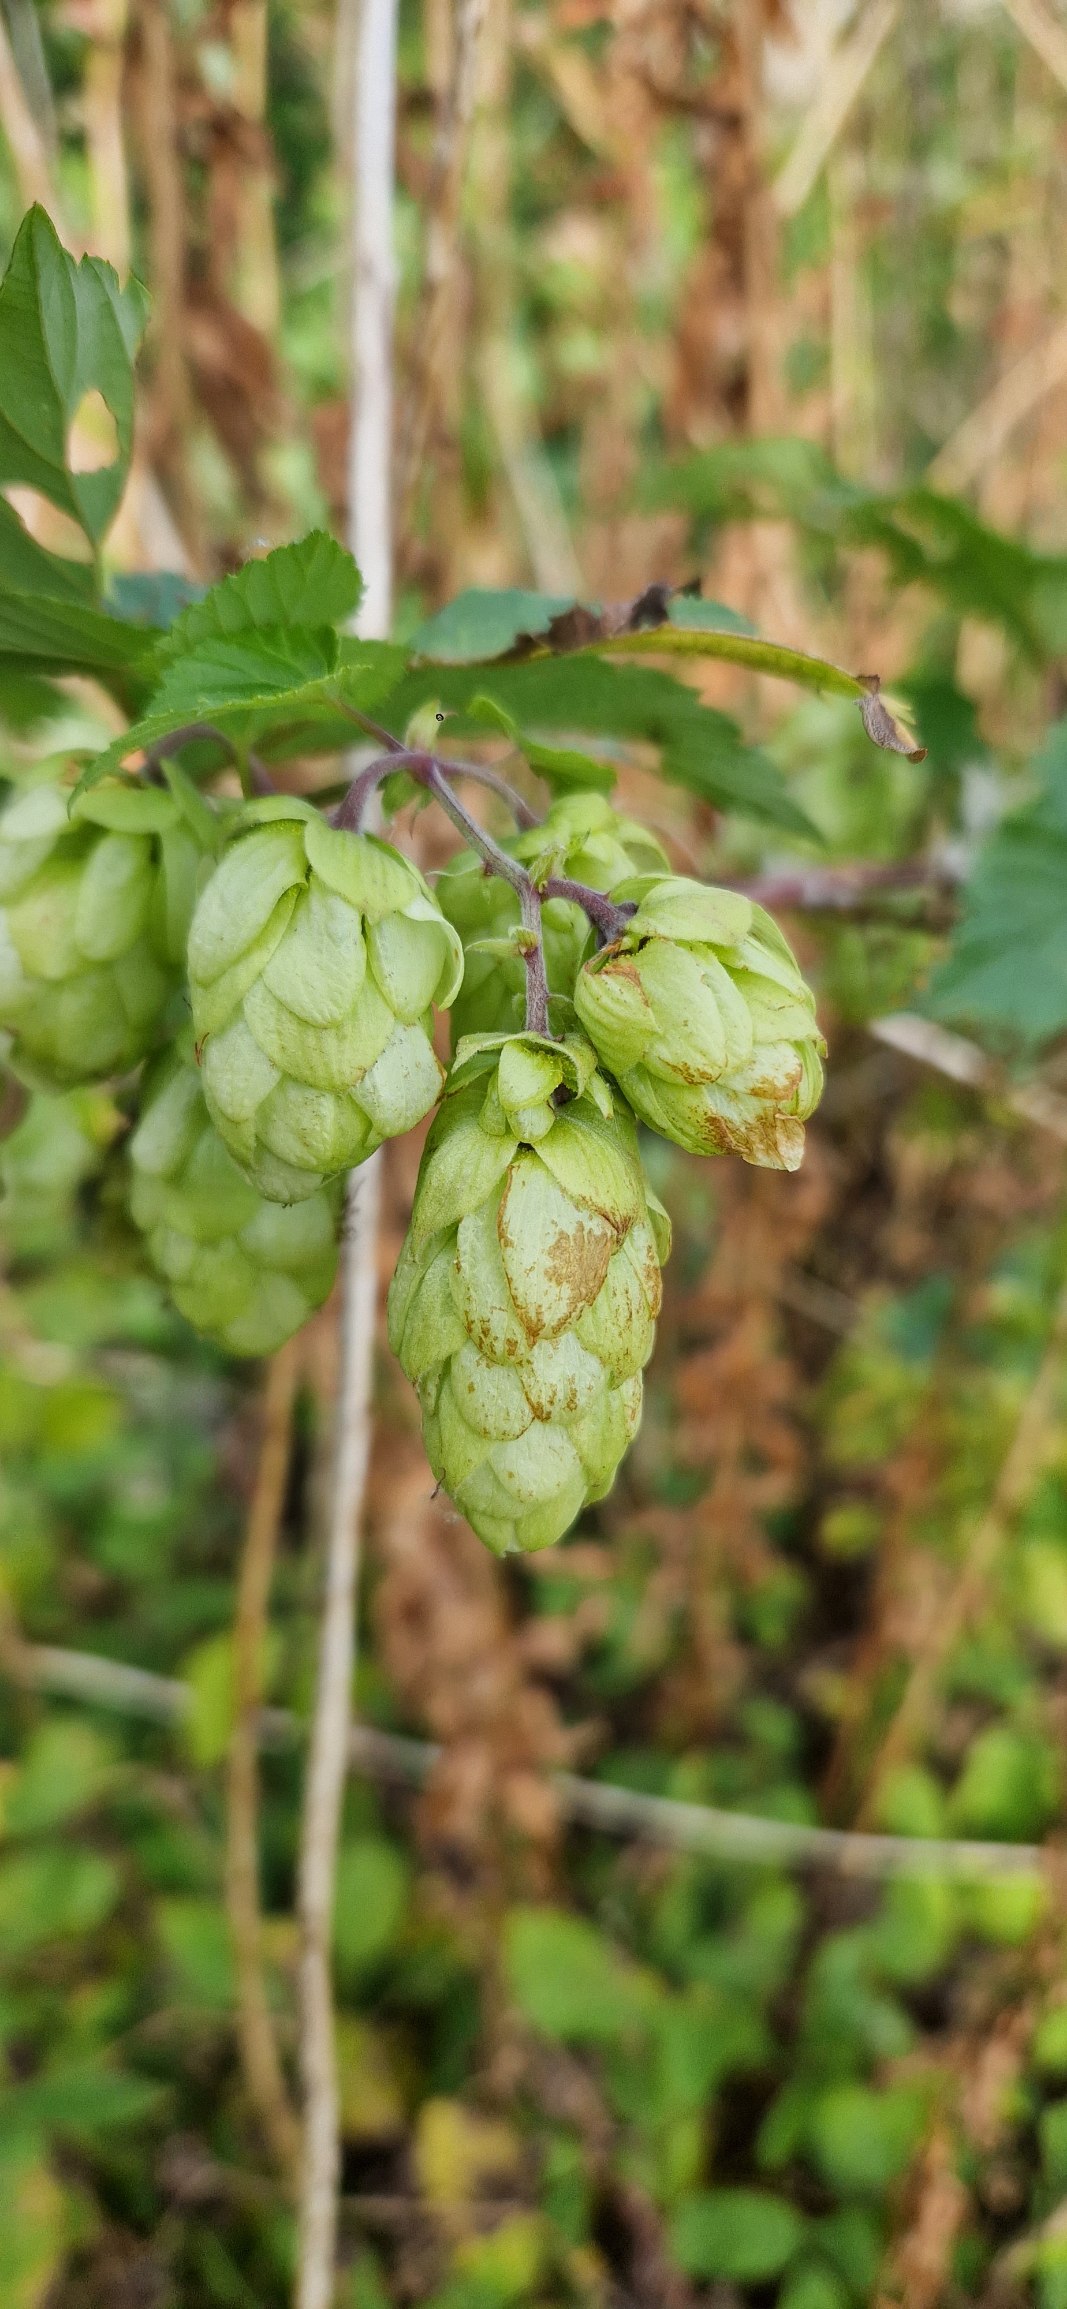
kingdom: Plantae
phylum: Tracheophyta
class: Magnoliopsida
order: Rosales
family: Cannabaceae
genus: Humulus
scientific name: Humulus lupulus
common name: Humle
